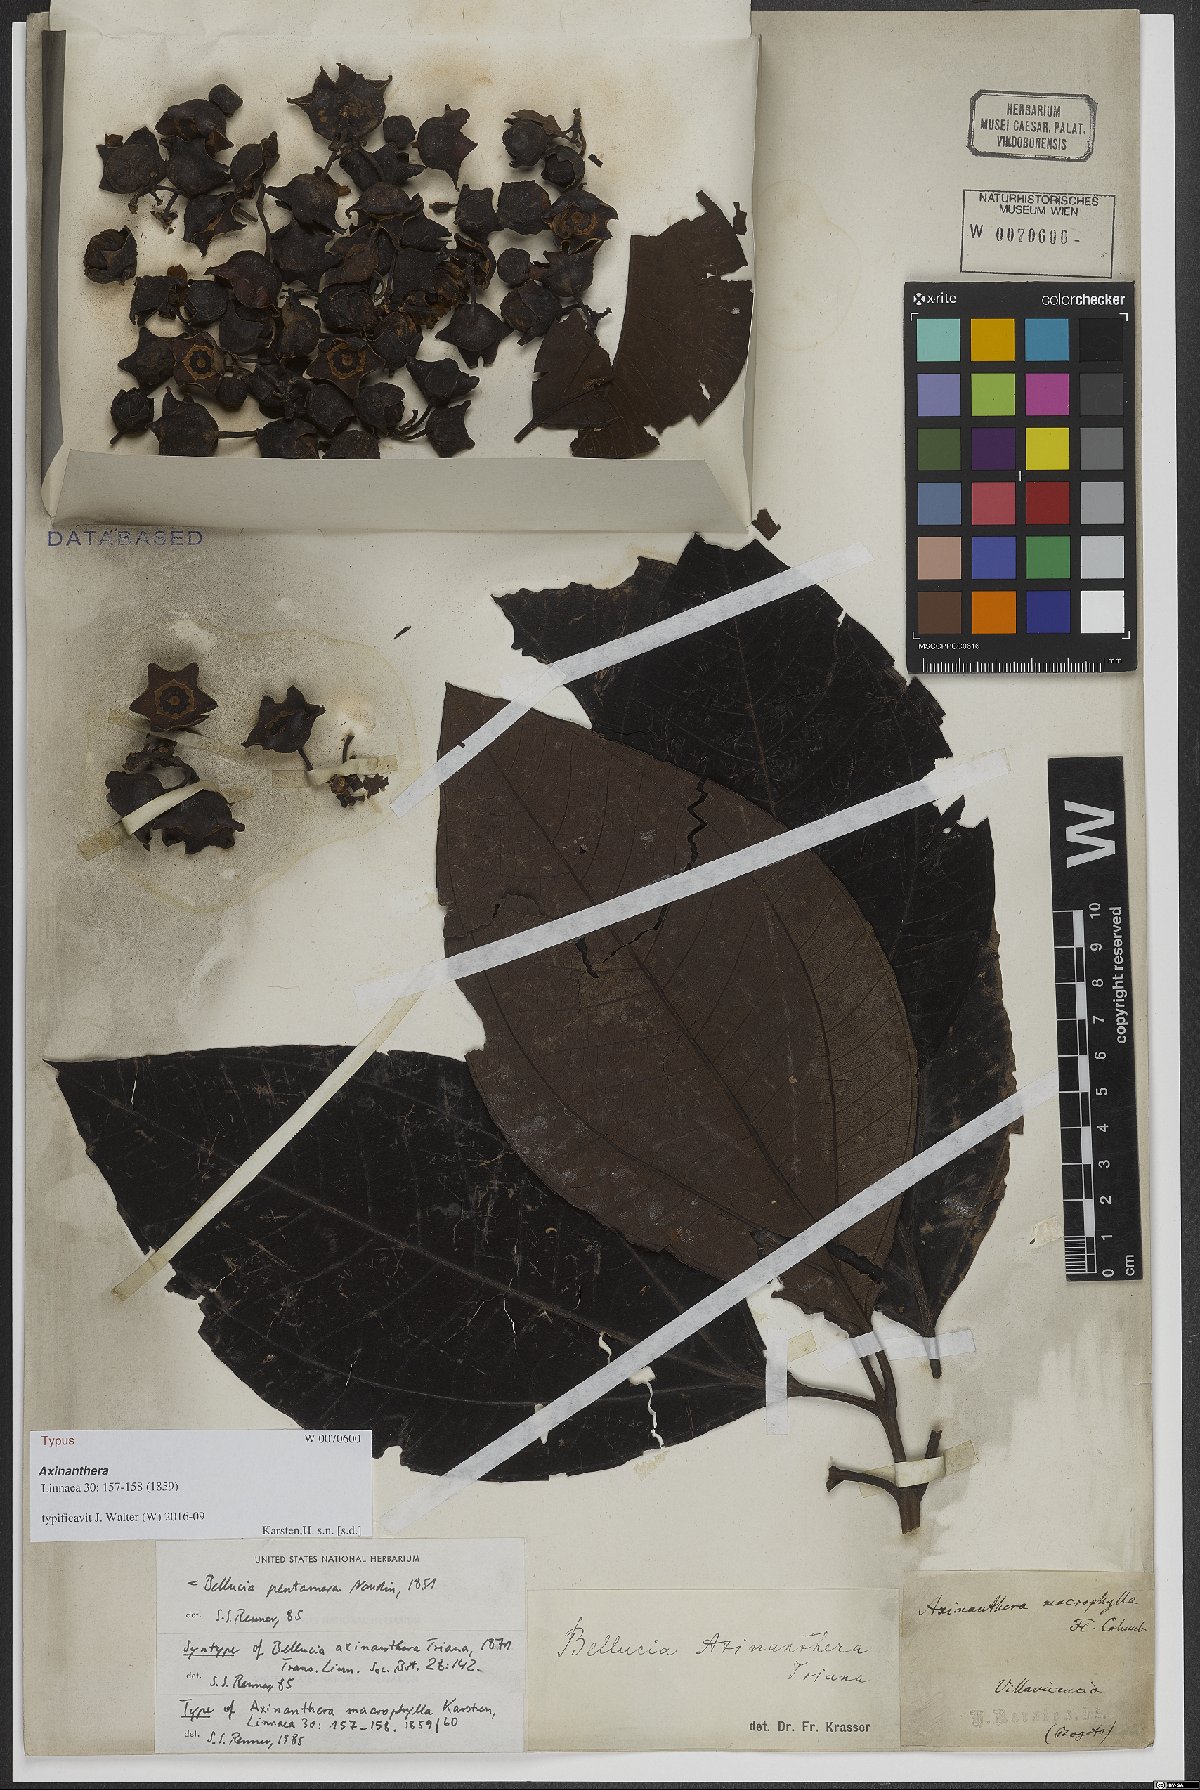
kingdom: Plantae
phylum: Tracheophyta
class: Magnoliopsida
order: Myrtales
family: Melastomataceae
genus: Bellucia
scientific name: Bellucia pentamera
